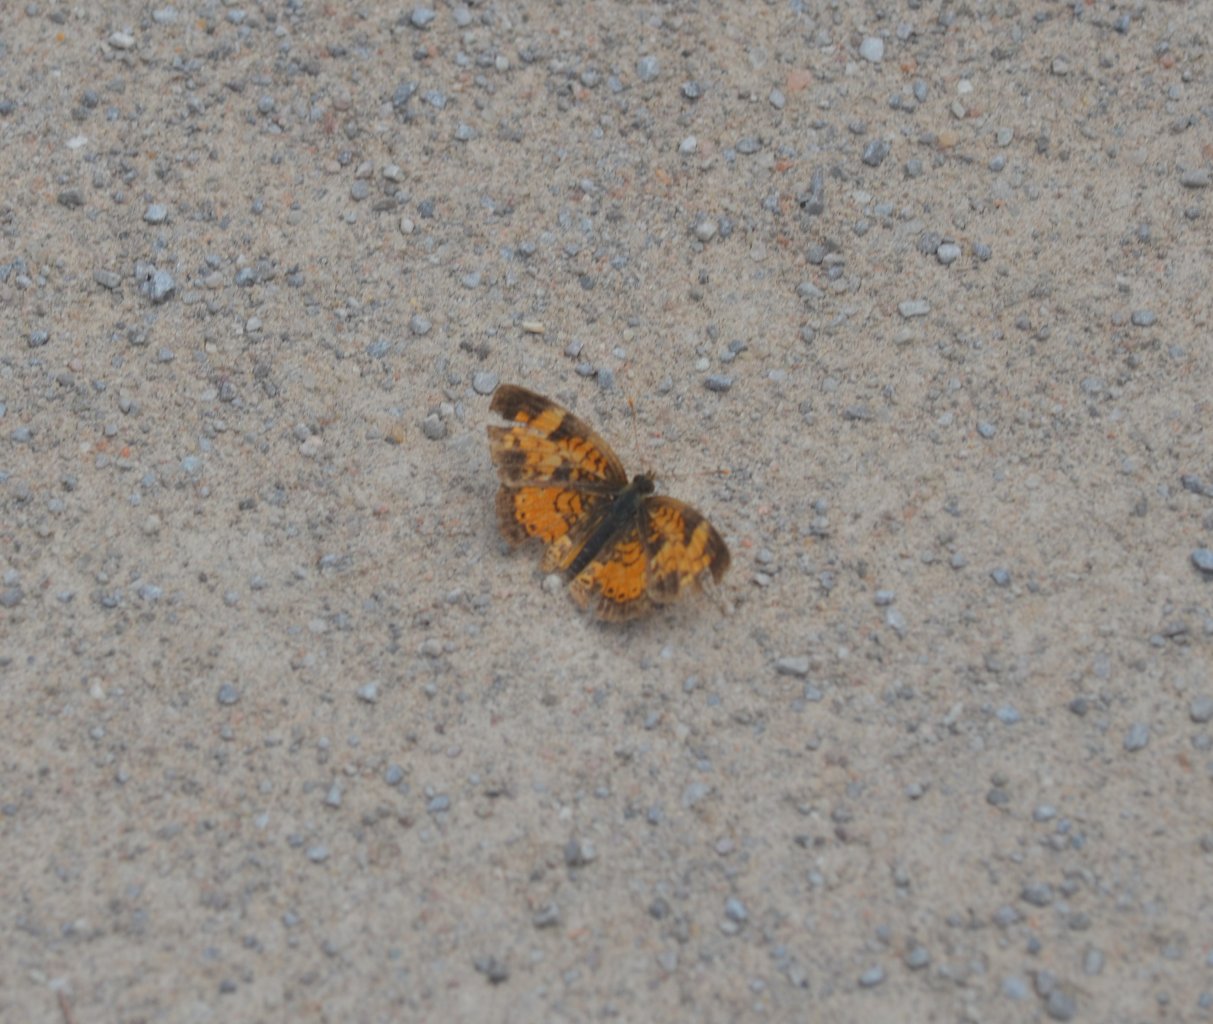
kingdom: Animalia
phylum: Arthropoda
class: Insecta
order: Lepidoptera
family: Nymphalidae
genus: Phyciodes
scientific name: Phyciodes tharos
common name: Northern Crescent
